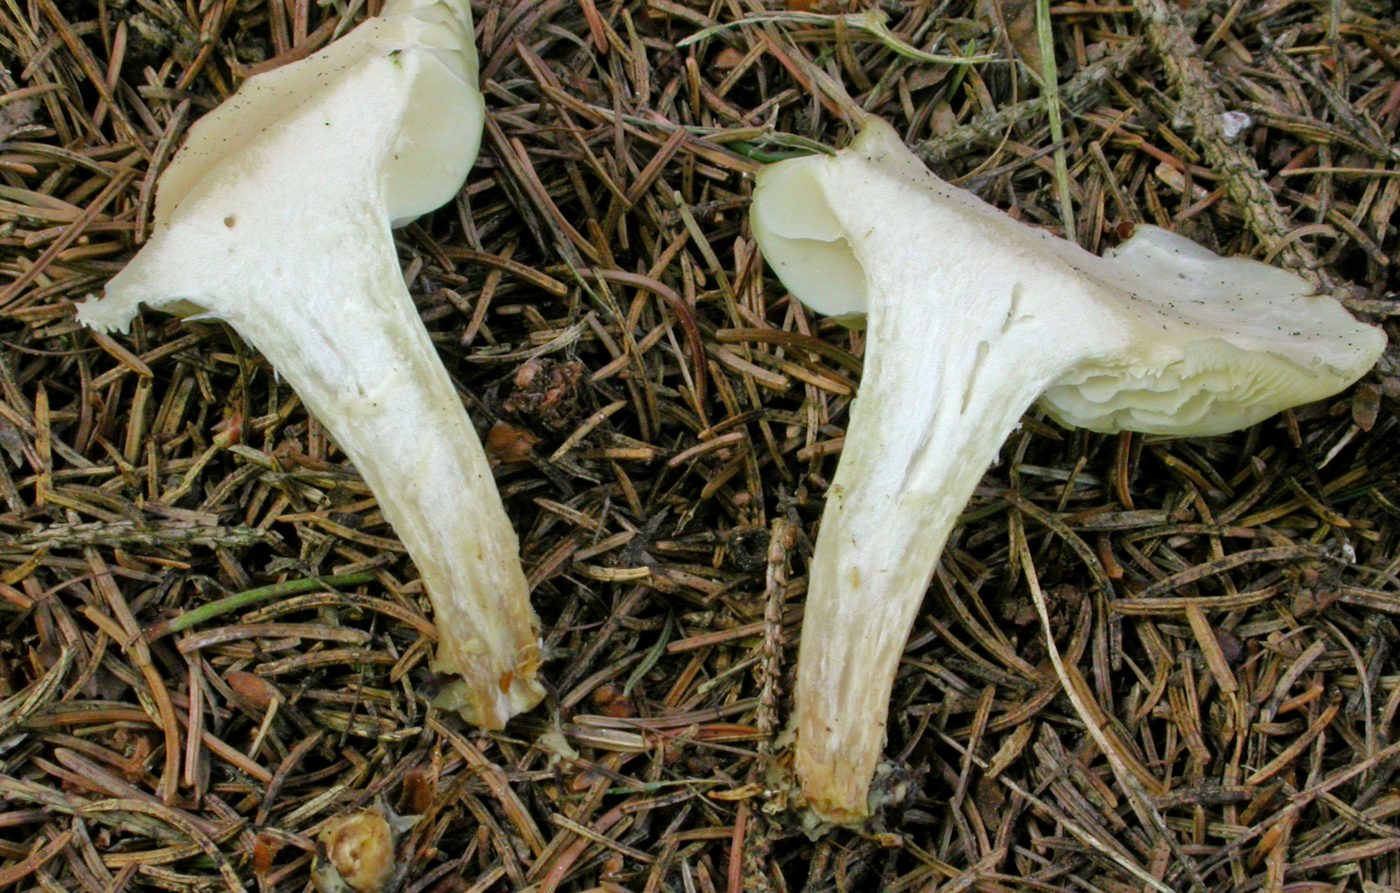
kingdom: Fungi
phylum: Basidiomycota
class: Agaricomycetes
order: Agaricales
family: Tricholomataceae
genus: Clitocybe
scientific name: Clitocybe odora
